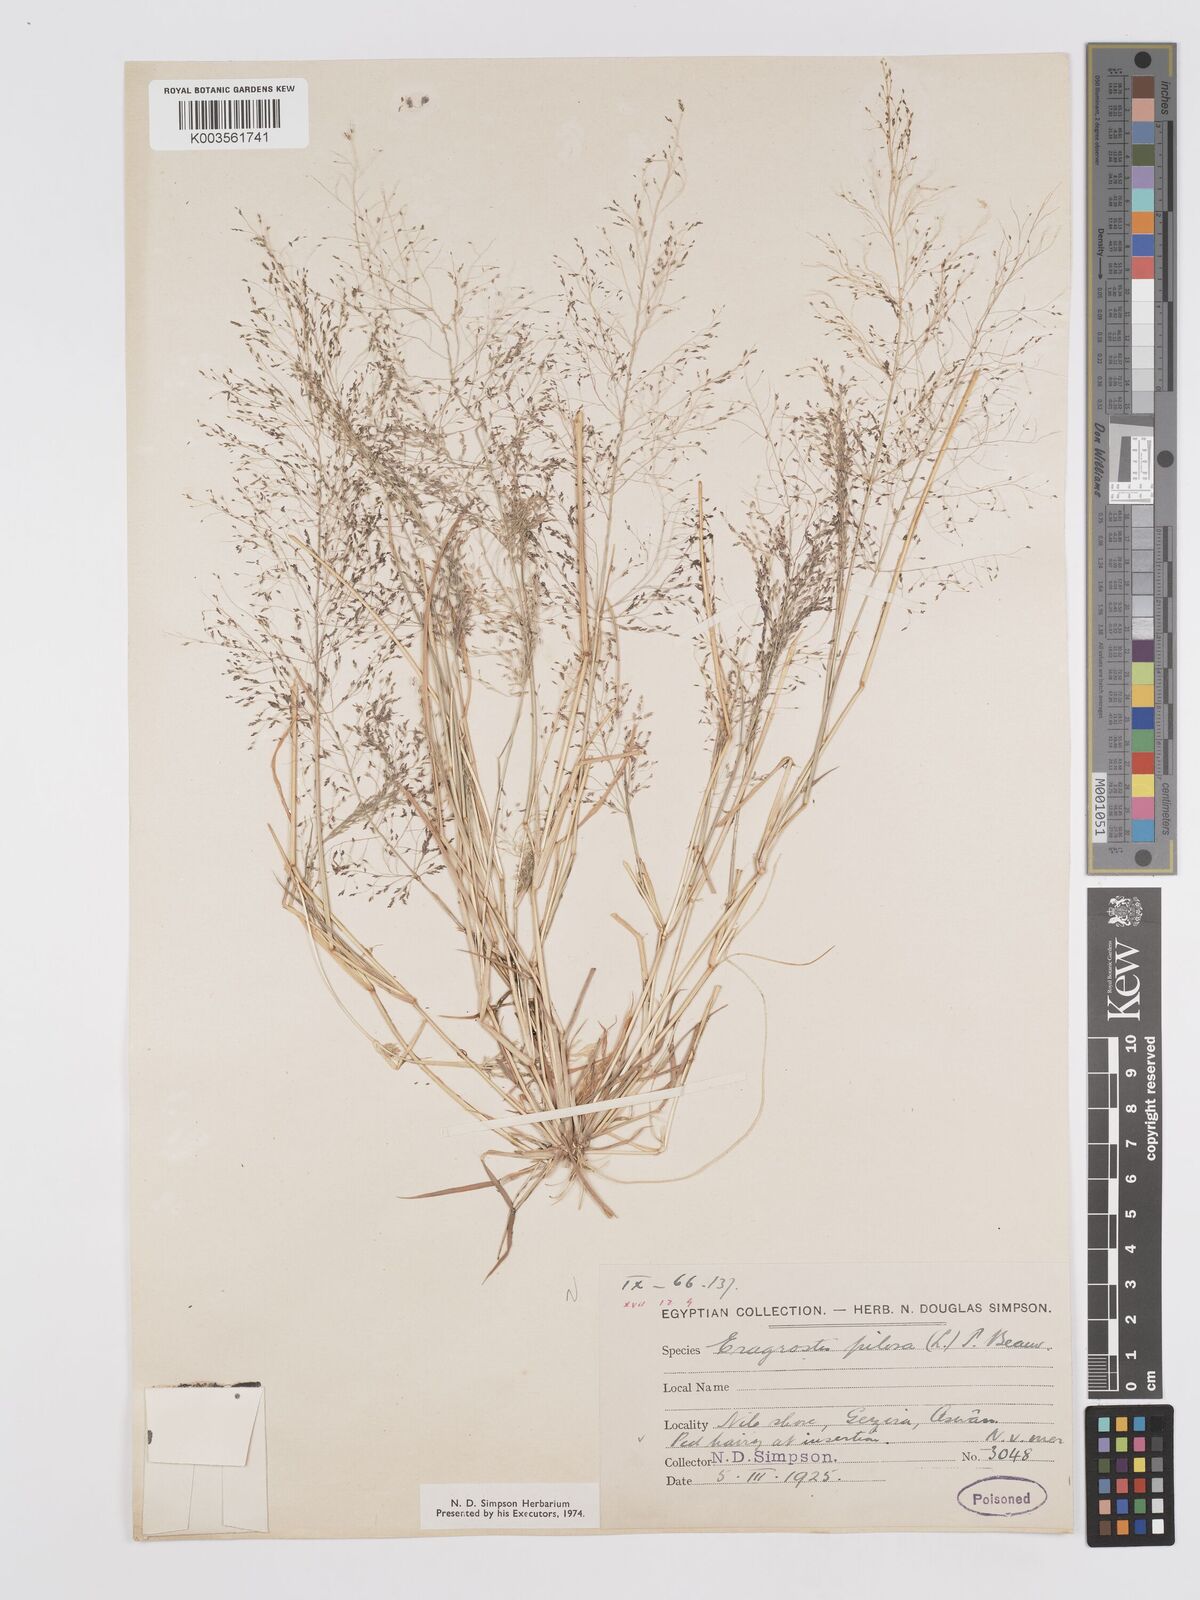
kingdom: Plantae
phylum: Tracheophyta
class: Liliopsida
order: Poales
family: Poaceae
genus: Eragrostis
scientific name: Eragrostis pilosa
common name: Indian lovegrass
